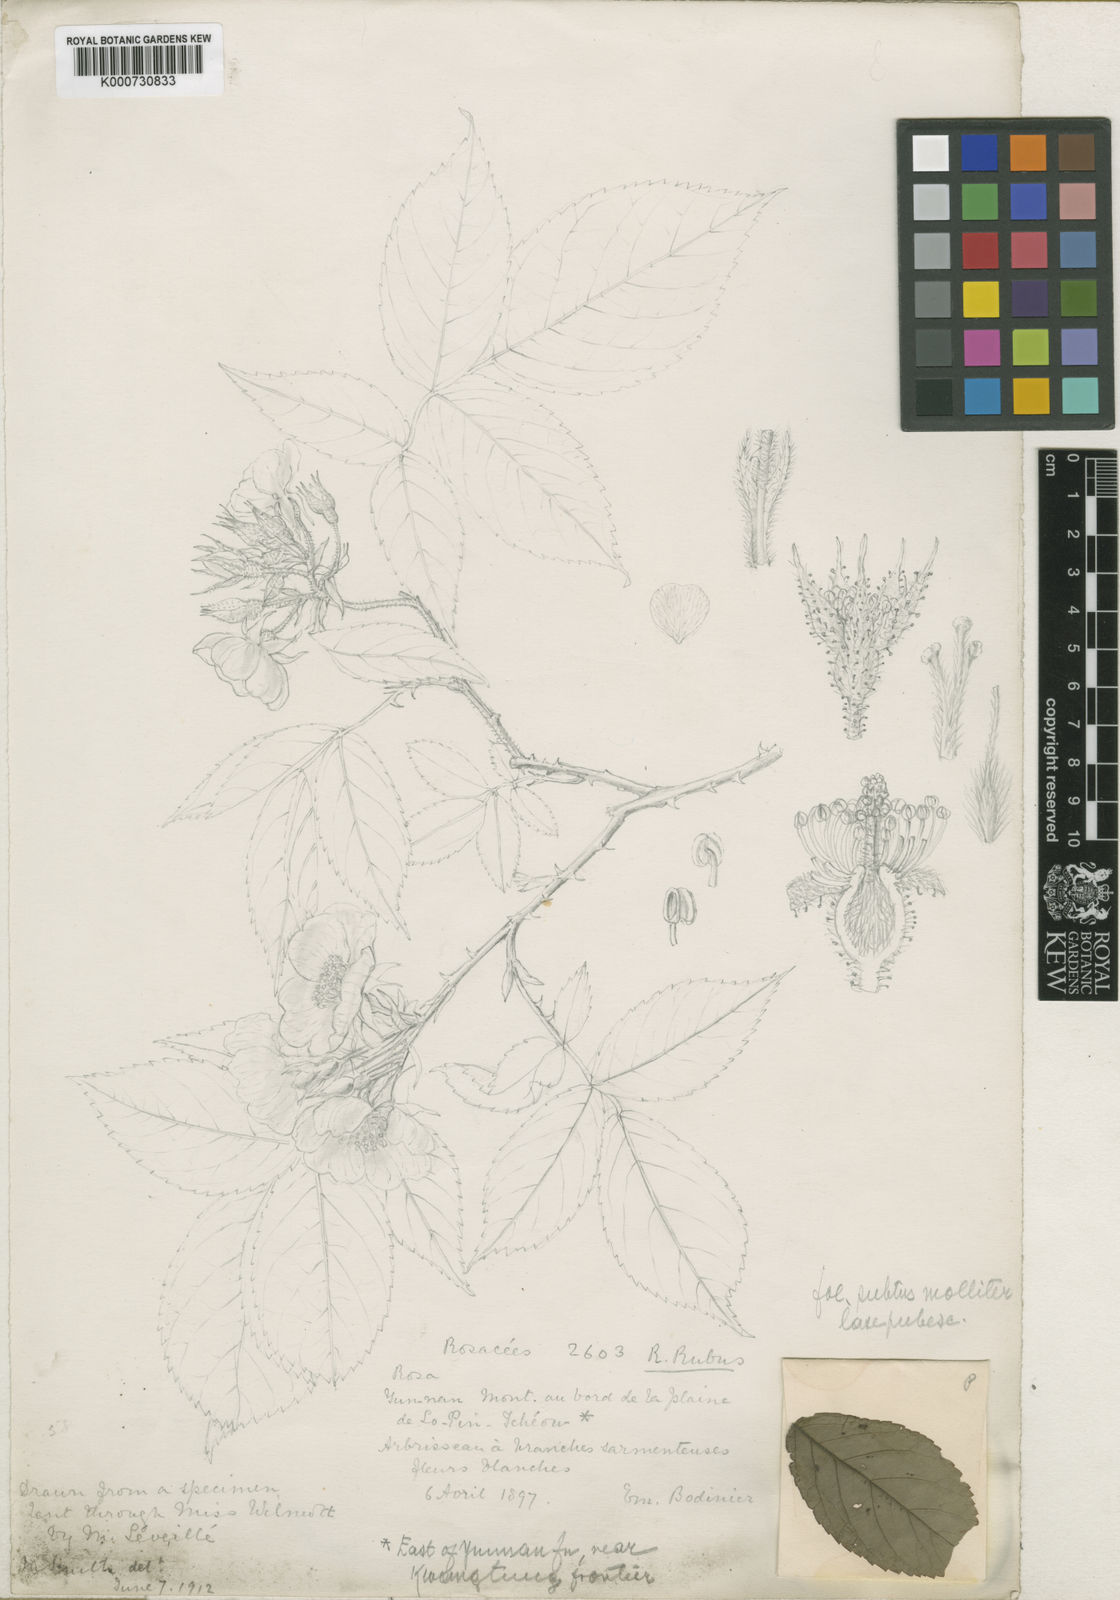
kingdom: Plantae
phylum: Tracheophyta
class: Magnoliopsida
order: Rosales
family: Rosaceae
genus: Rosa
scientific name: Rosa
